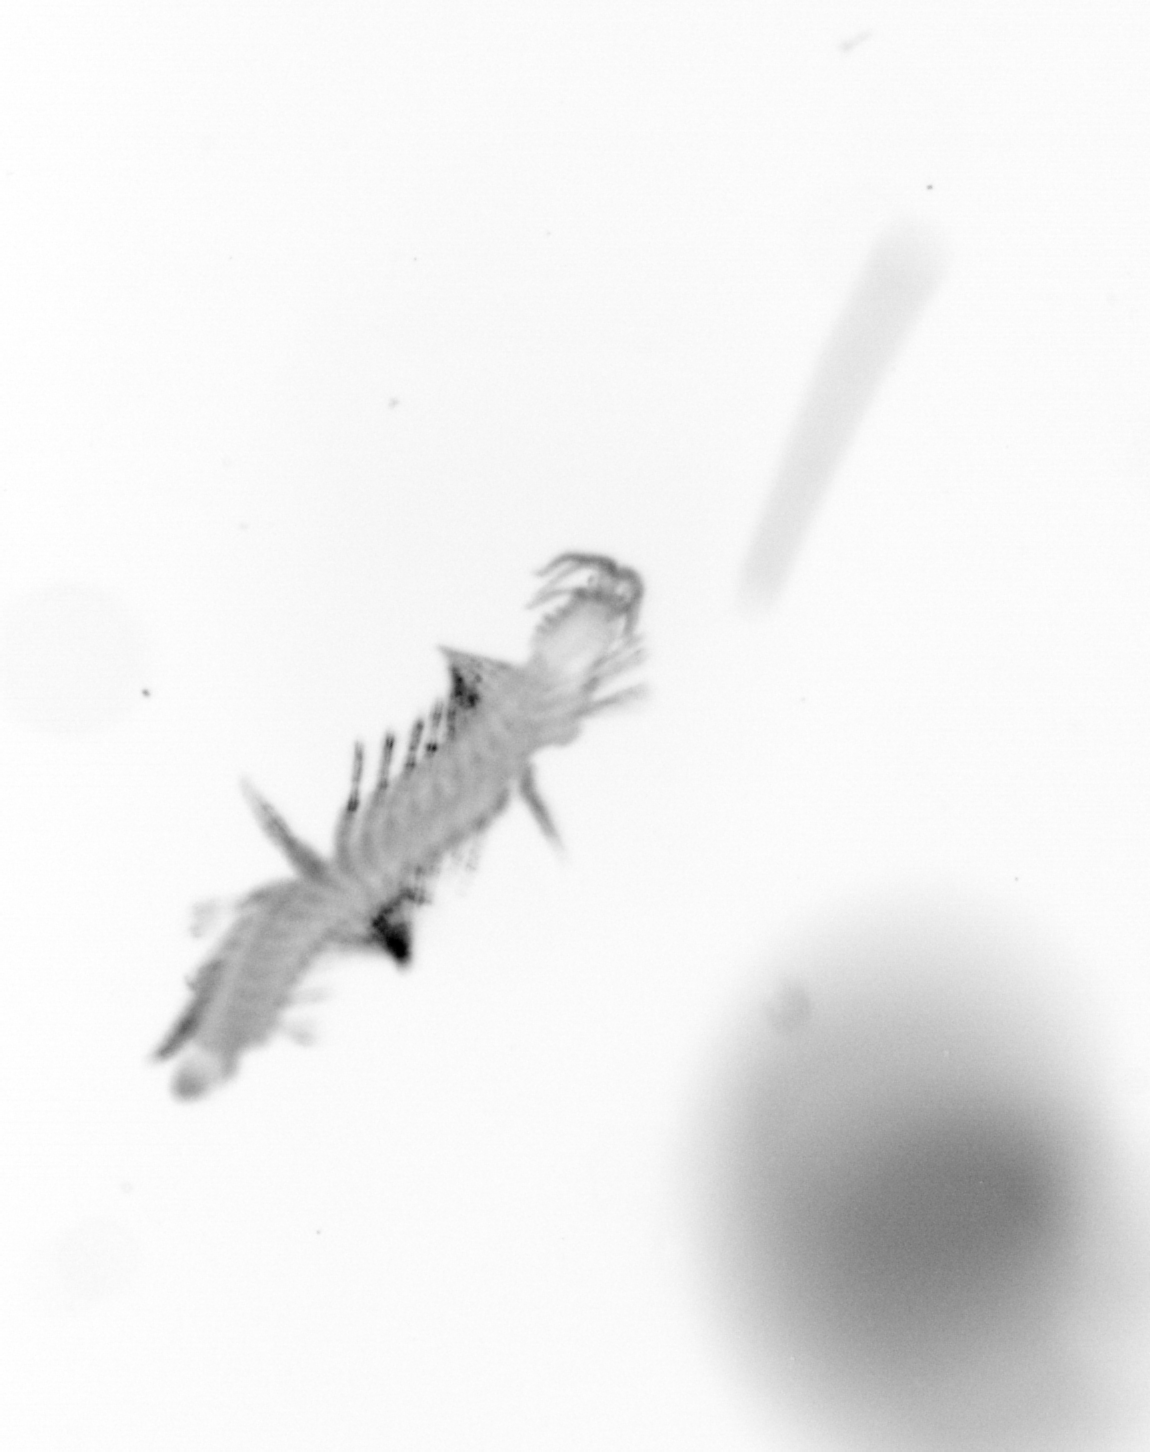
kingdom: Animalia
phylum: Annelida
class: Polychaeta
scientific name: Polychaeta
